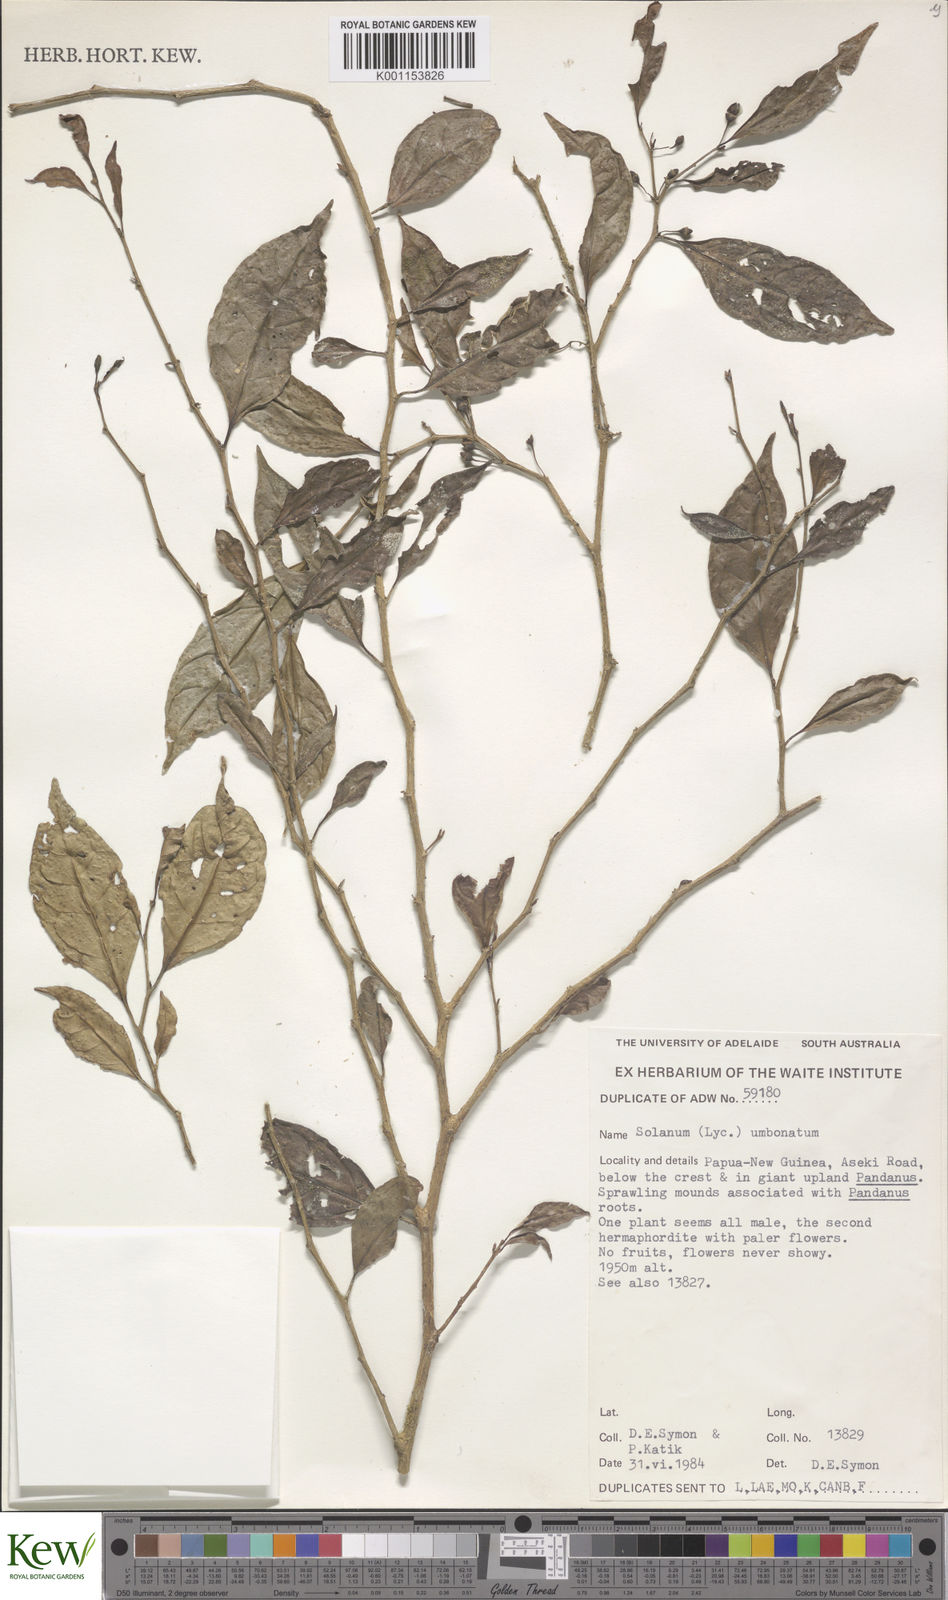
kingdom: Plantae
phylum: Tracheophyta
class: Magnoliopsida
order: Solanales
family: Solanaceae
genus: Lycianthes
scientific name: Lycianthes bambusarum
